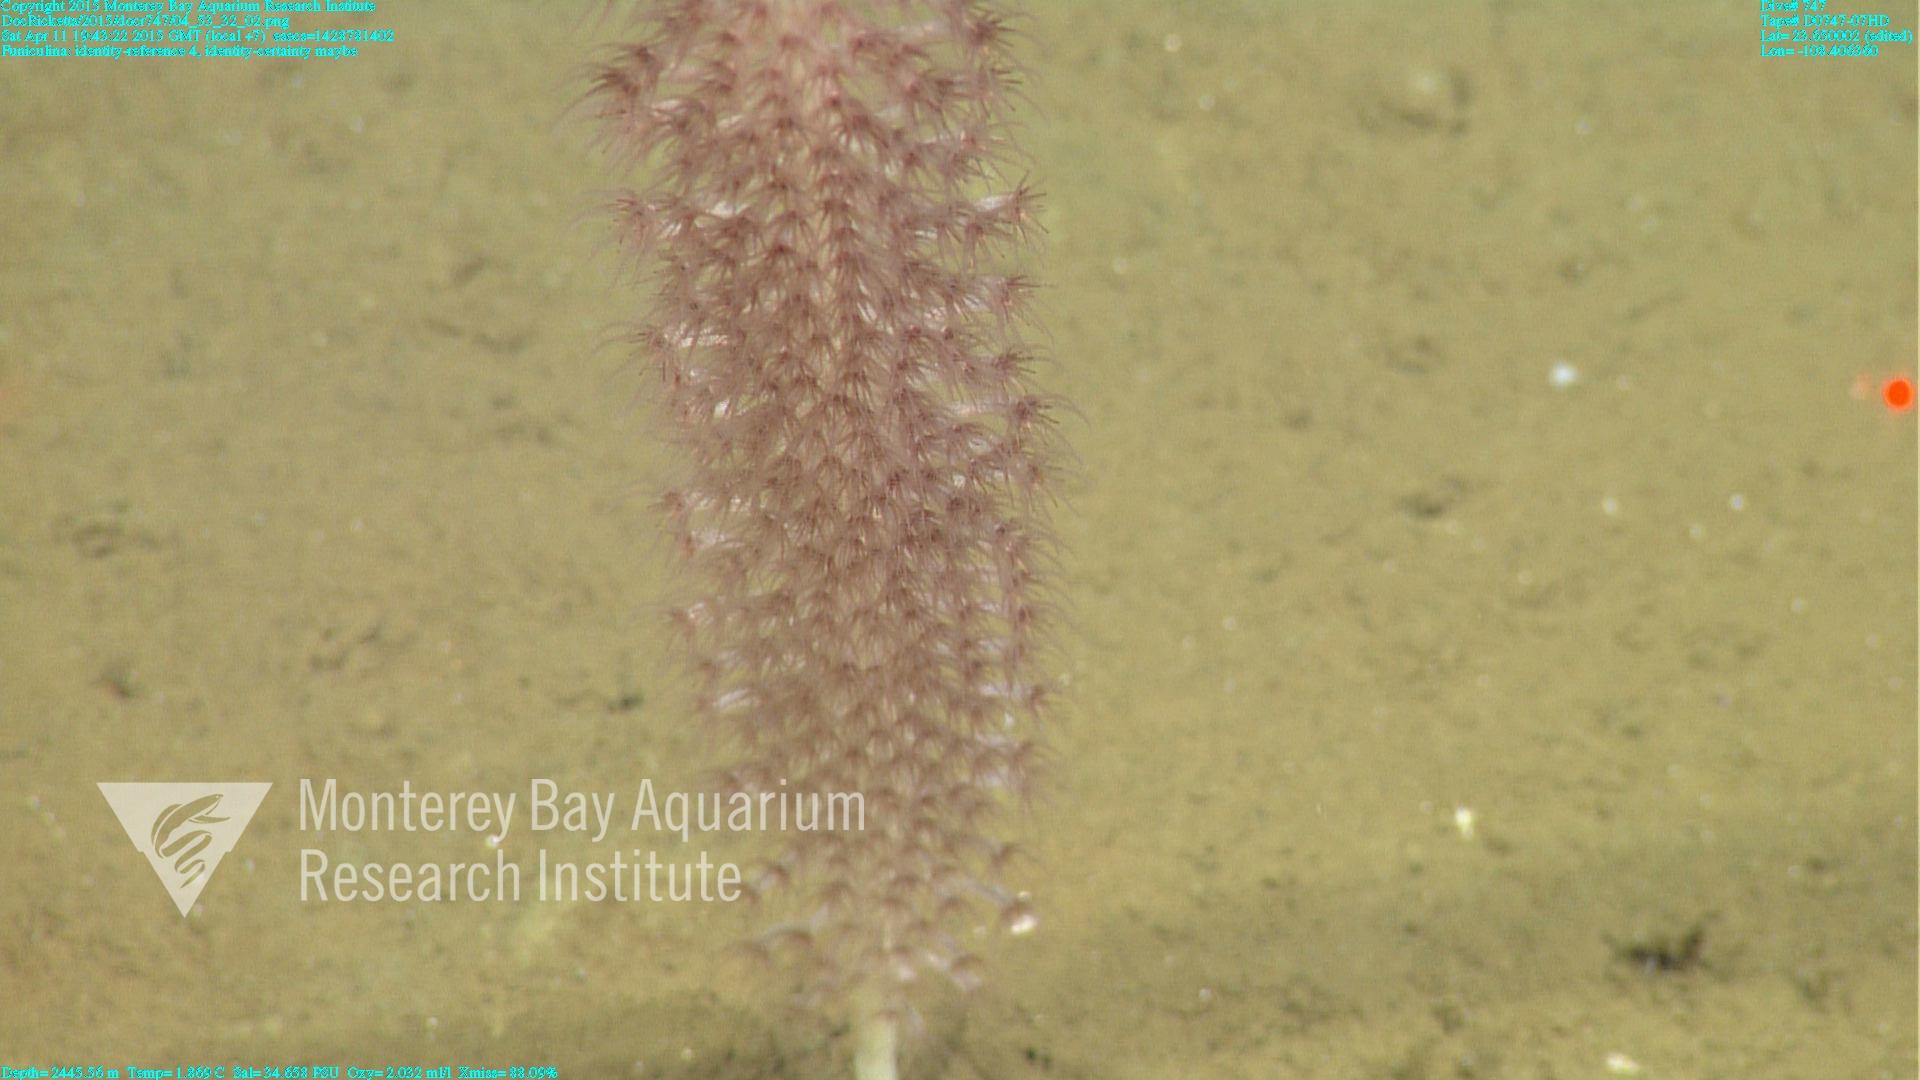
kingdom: Animalia
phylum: Cnidaria
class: Anthozoa
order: Scleralcyonacea
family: Funiculinidae
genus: Funiculina
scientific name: Funiculina
